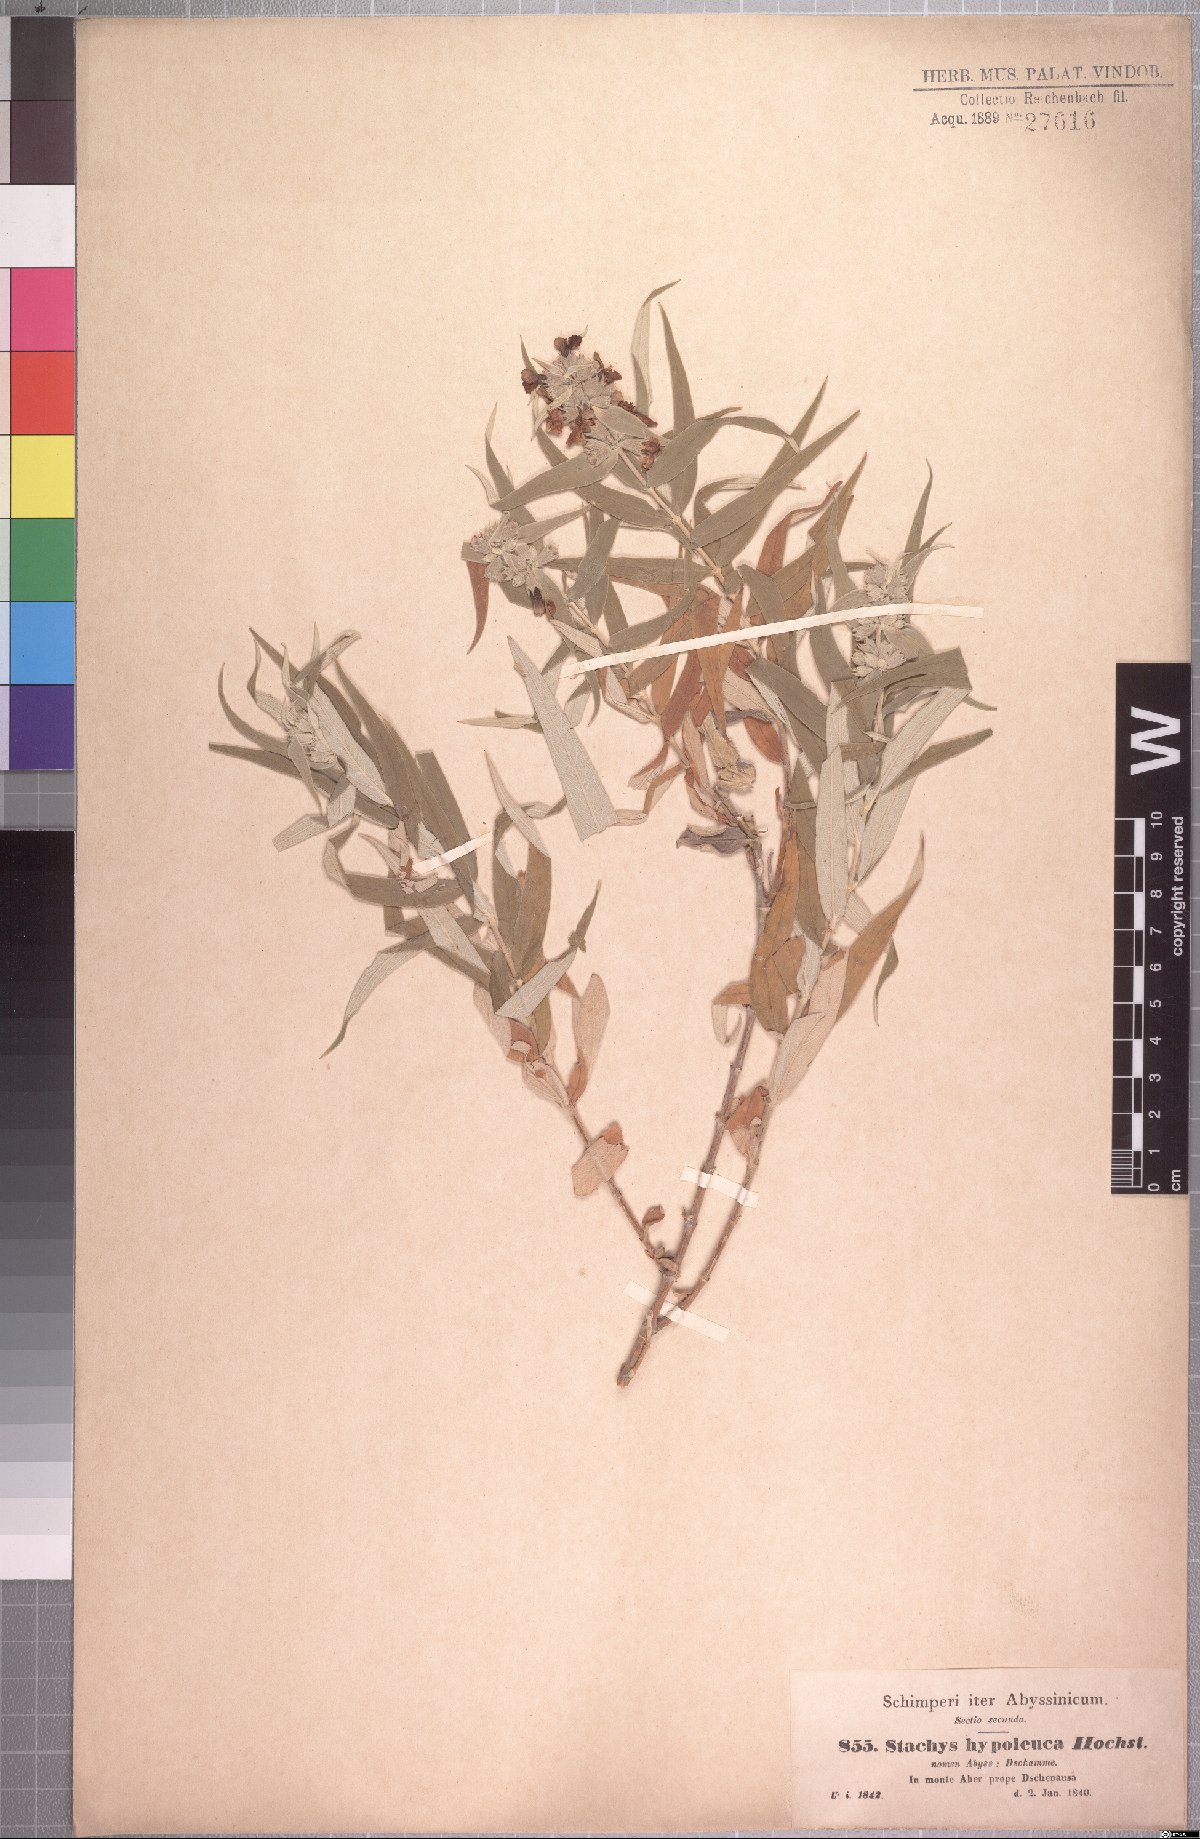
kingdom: Plantae
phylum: Tracheophyta
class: Magnoliopsida
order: Lamiales
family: Lamiaceae
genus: Stachys
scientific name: Stachys hypoleuca
